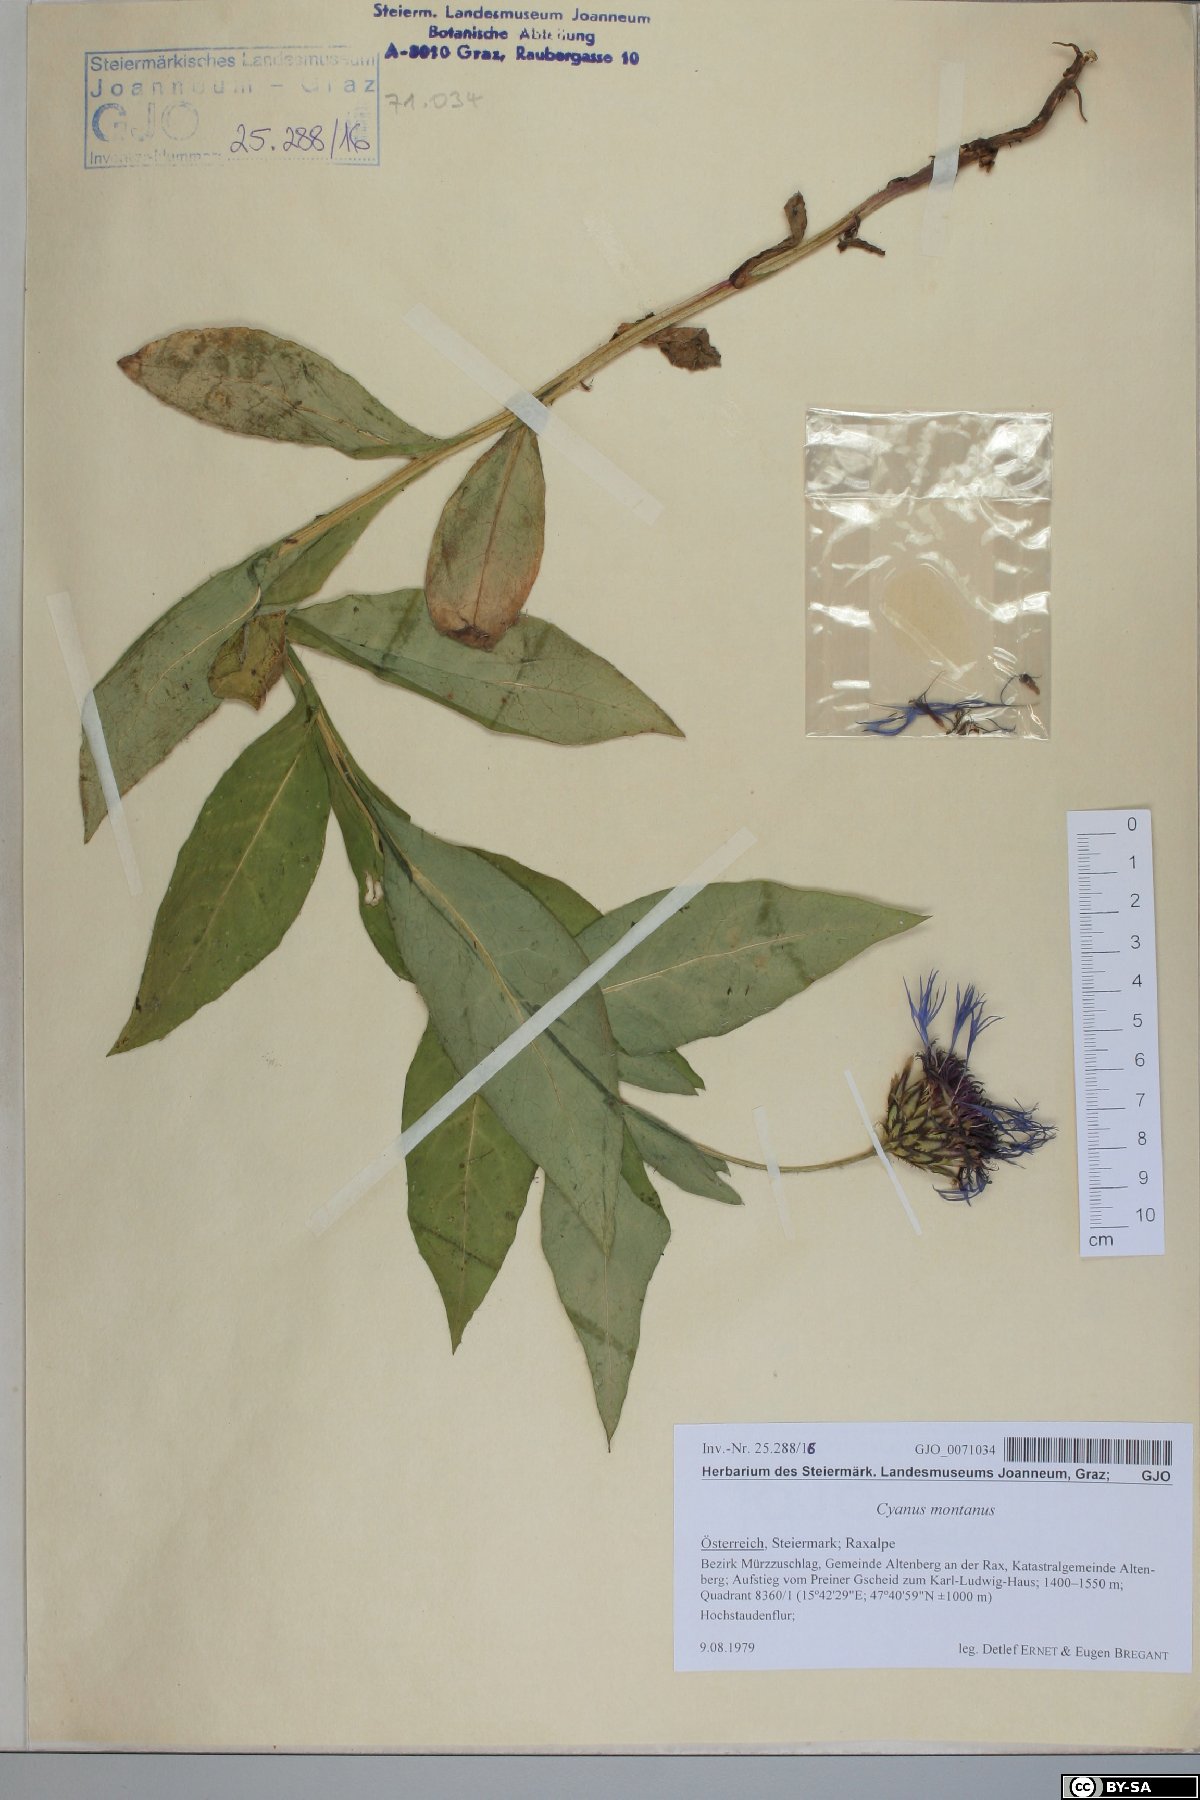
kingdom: Plantae
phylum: Tracheophyta
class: Magnoliopsida
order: Asterales
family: Asteraceae
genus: Centaurea
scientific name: Centaurea montana
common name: Perennial cornflower
